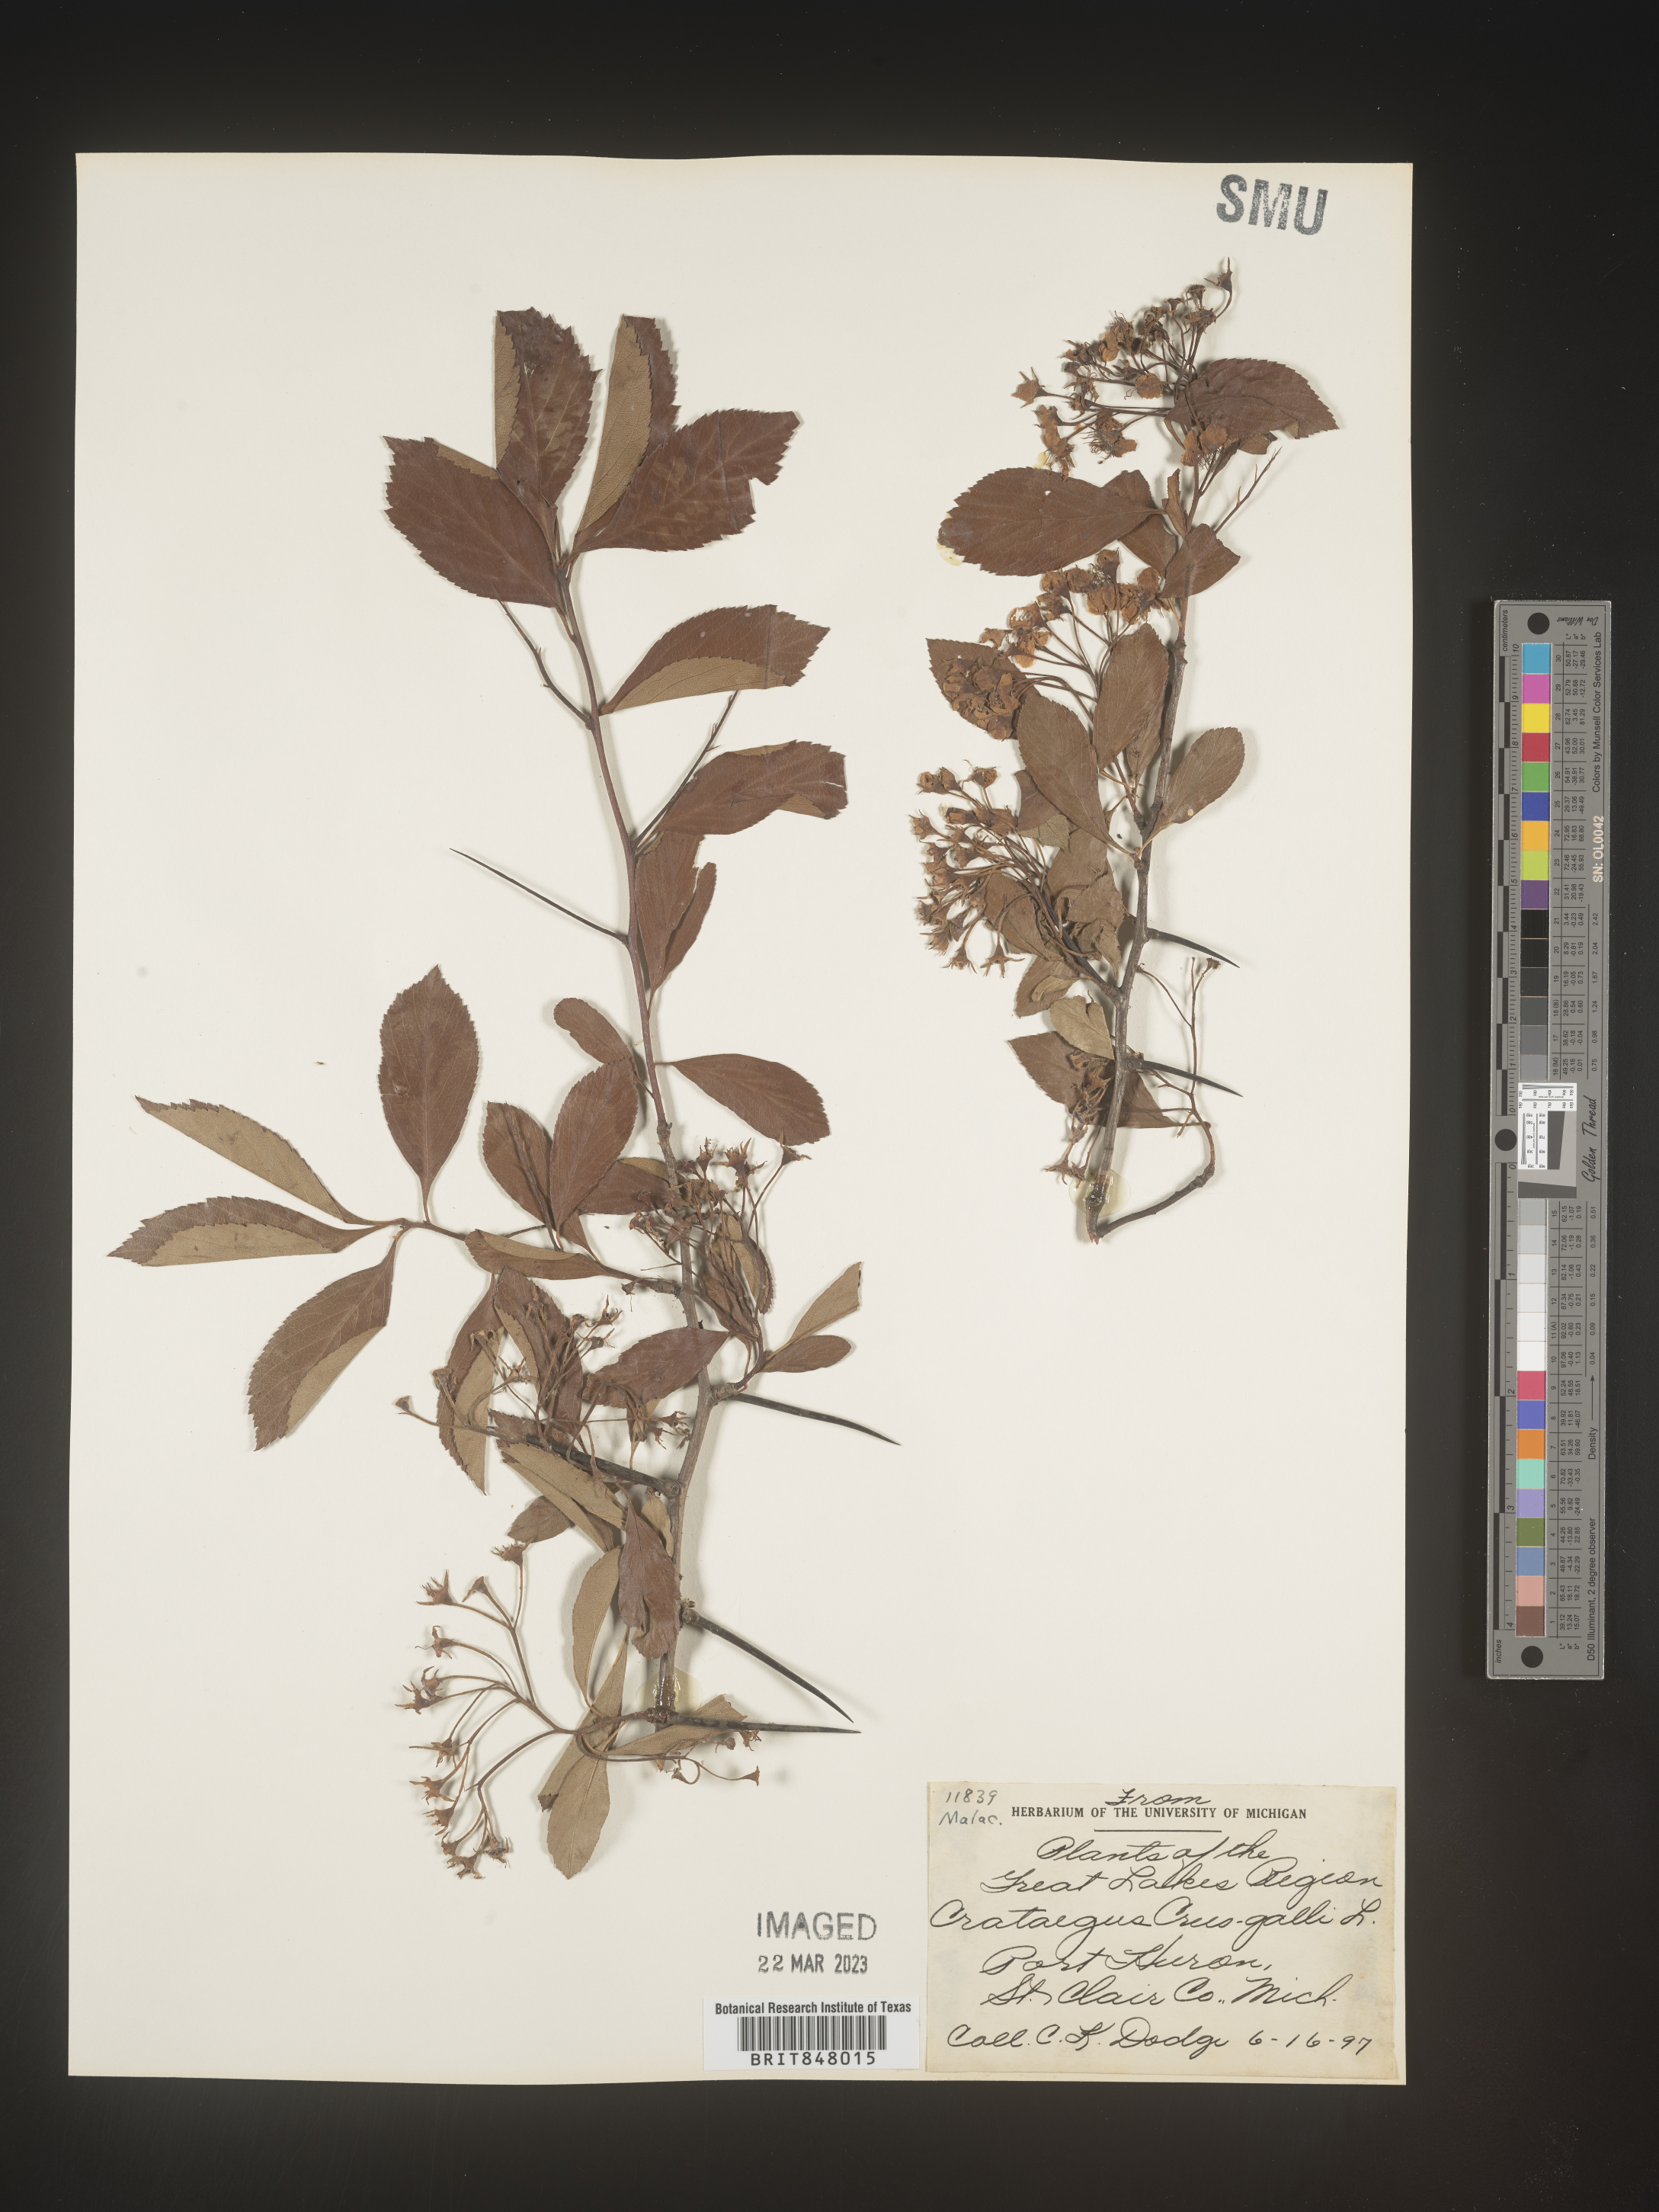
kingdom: Plantae
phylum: Tracheophyta
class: Magnoliopsida
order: Rosales
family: Rosaceae
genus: Crataegus
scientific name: Crataegus crus-galli
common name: Cockspurthorn
